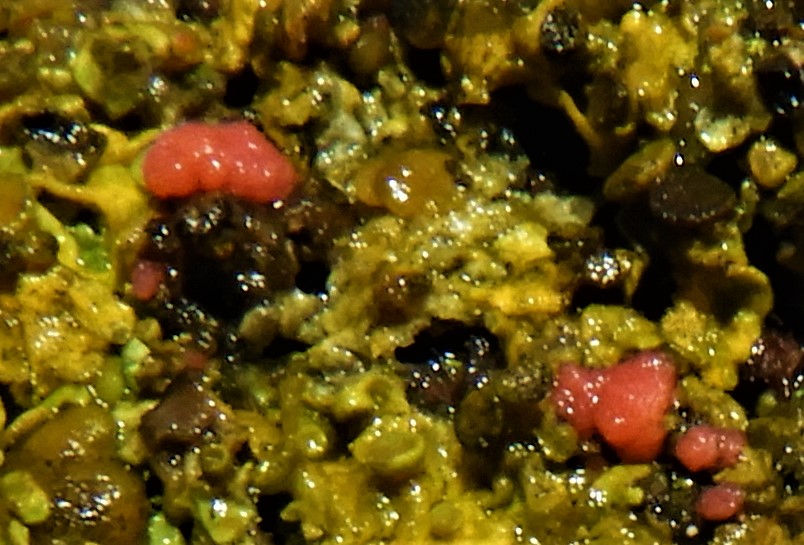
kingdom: Fungi
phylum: Ascomycota
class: Sordariomycetes
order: Hypocreales
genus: Illosporiopsis
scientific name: Illosporiopsis christiansenii
